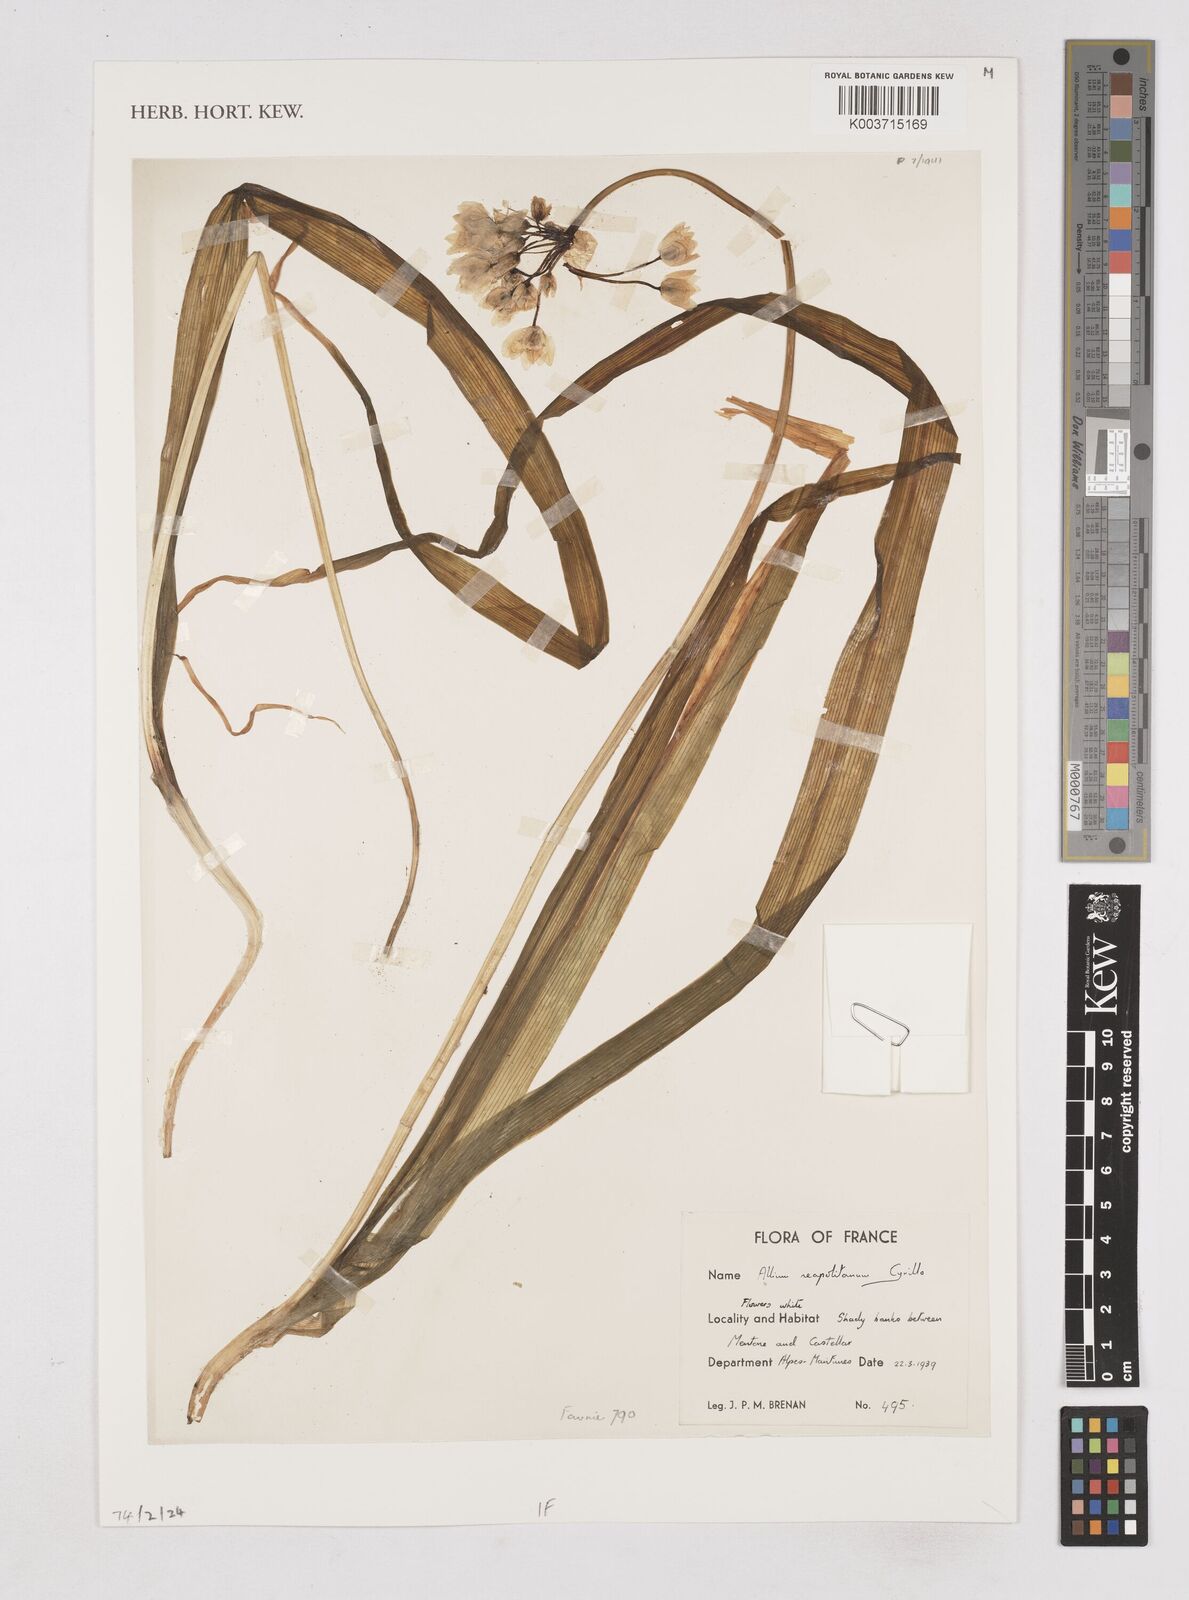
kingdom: Plantae
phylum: Tracheophyta
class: Liliopsida
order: Asparagales
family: Amaryllidaceae
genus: Allium
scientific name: Allium neapolitanum
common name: Neapolitan garlic
